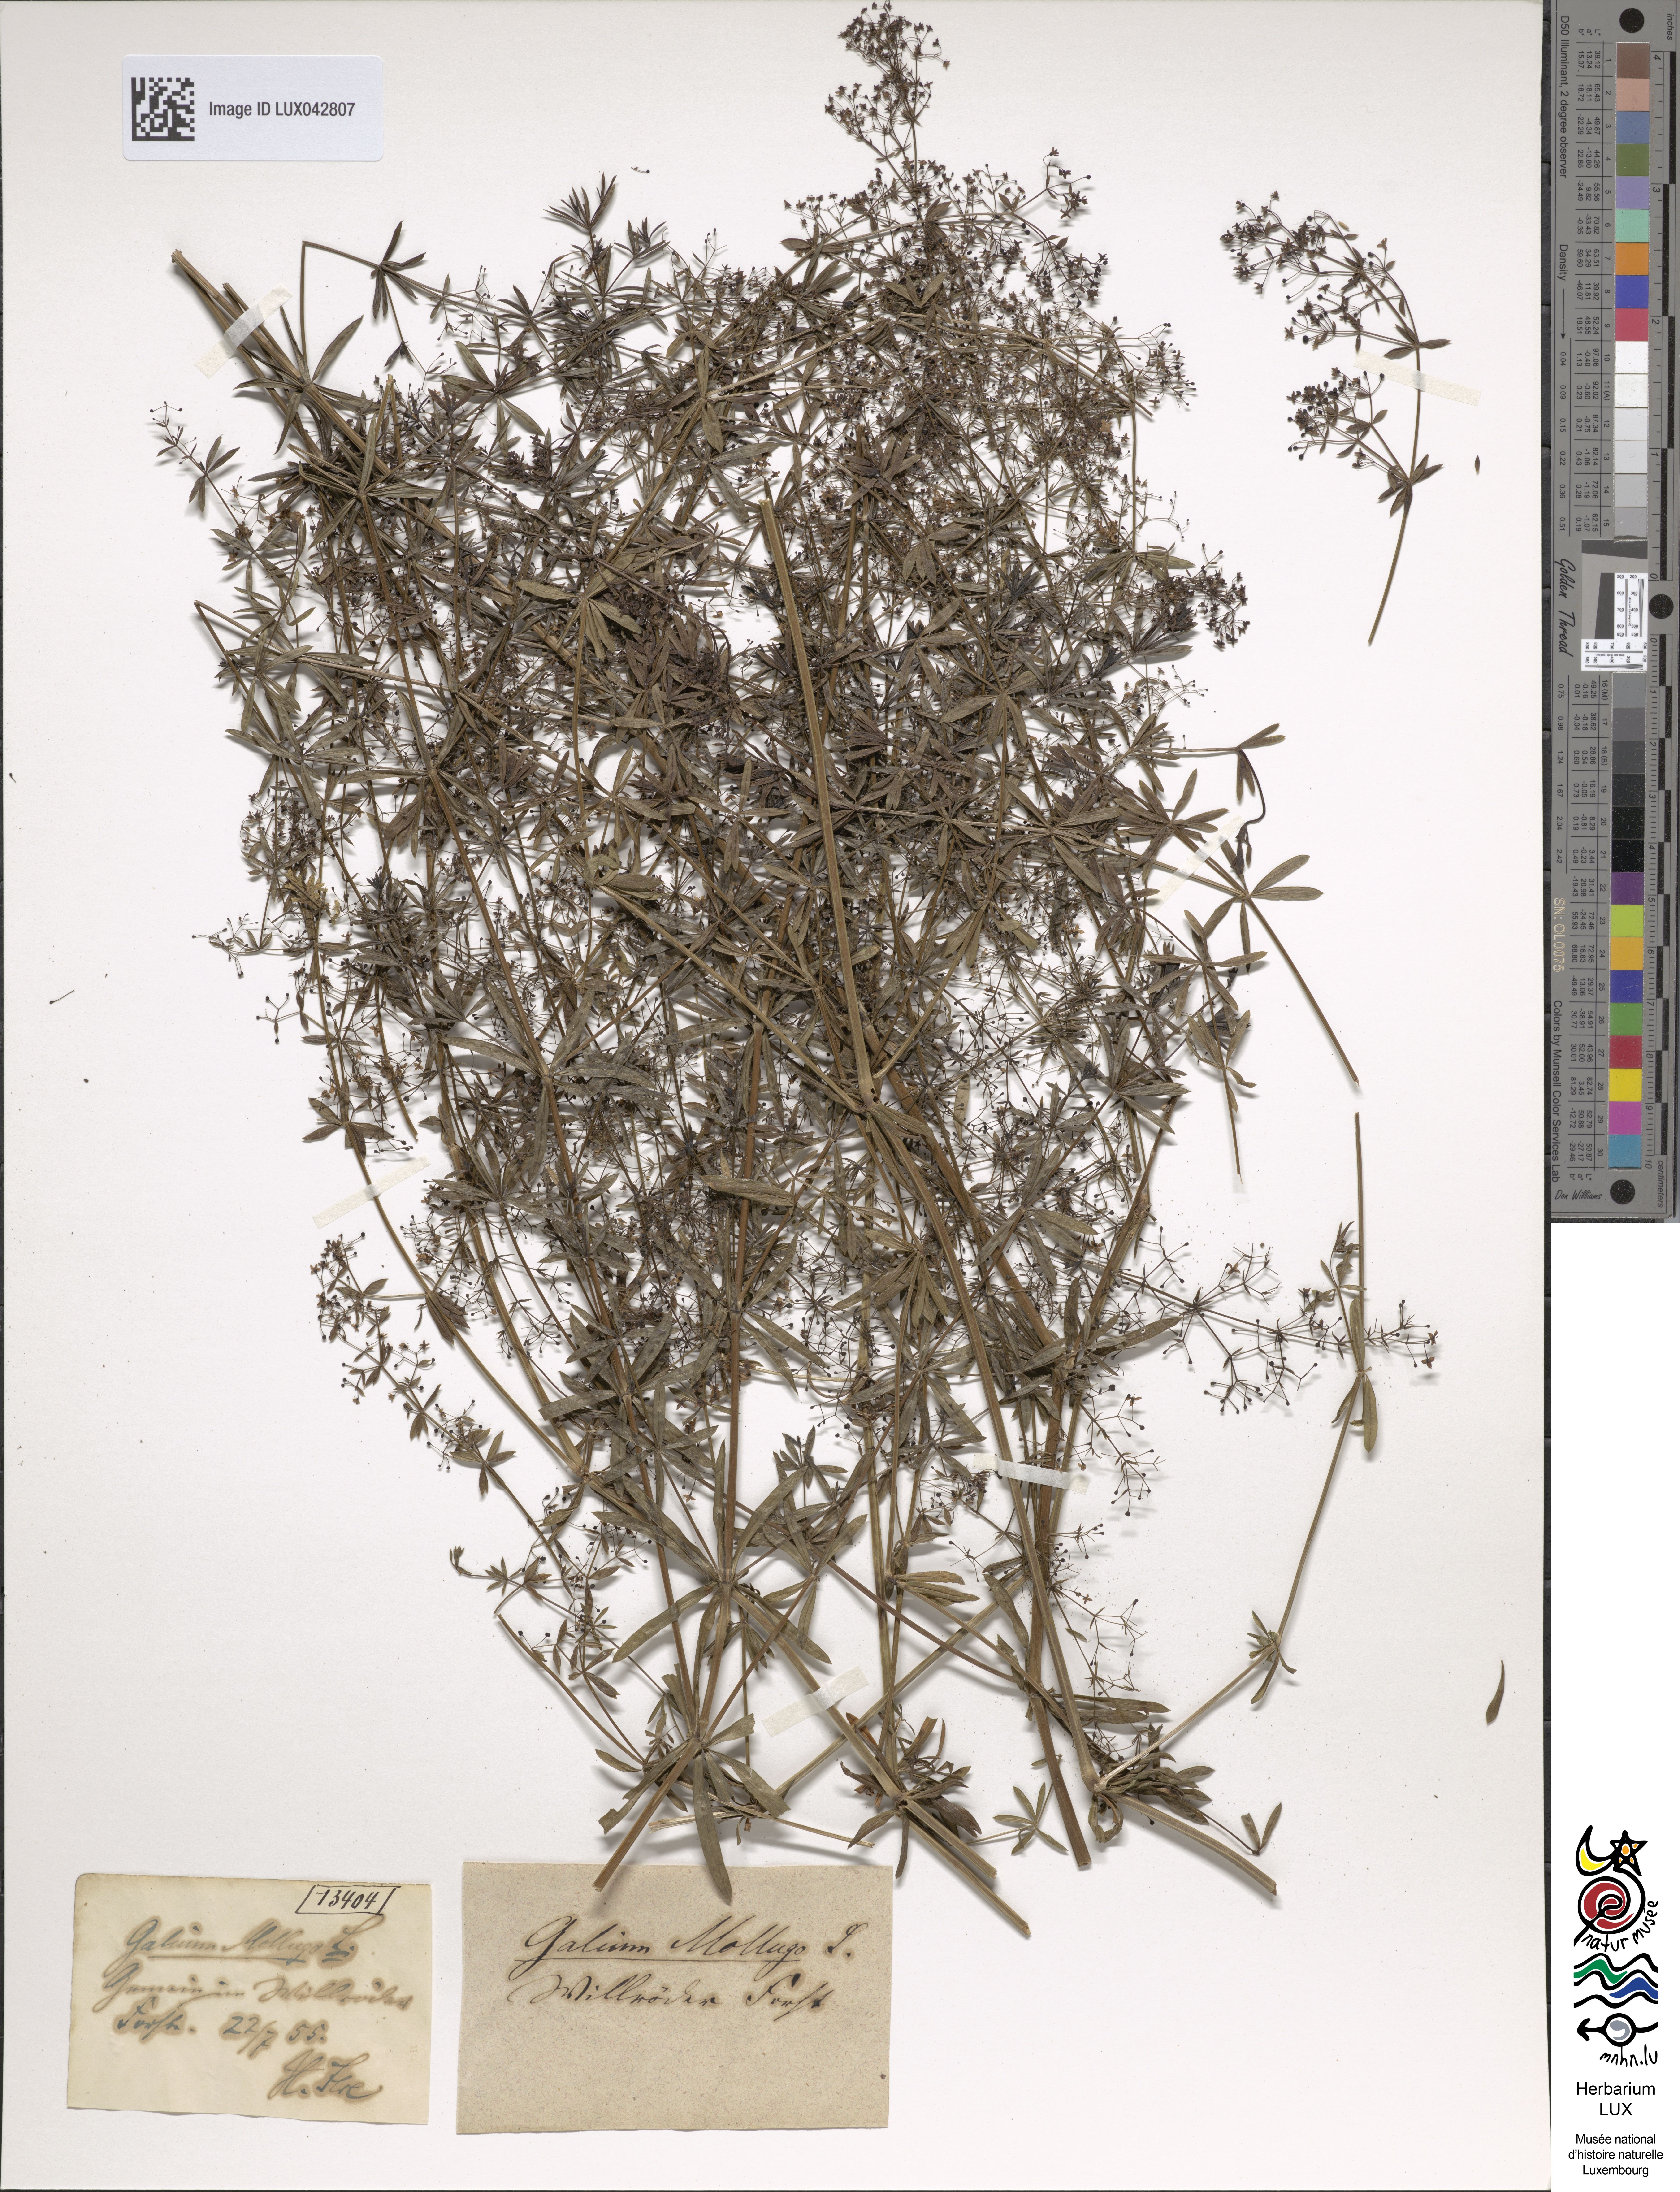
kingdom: Plantae
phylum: Tracheophyta
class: Magnoliopsida
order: Gentianales
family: Rubiaceae
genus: Galium
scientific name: Galium mollugo
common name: Hedge bedstraw
